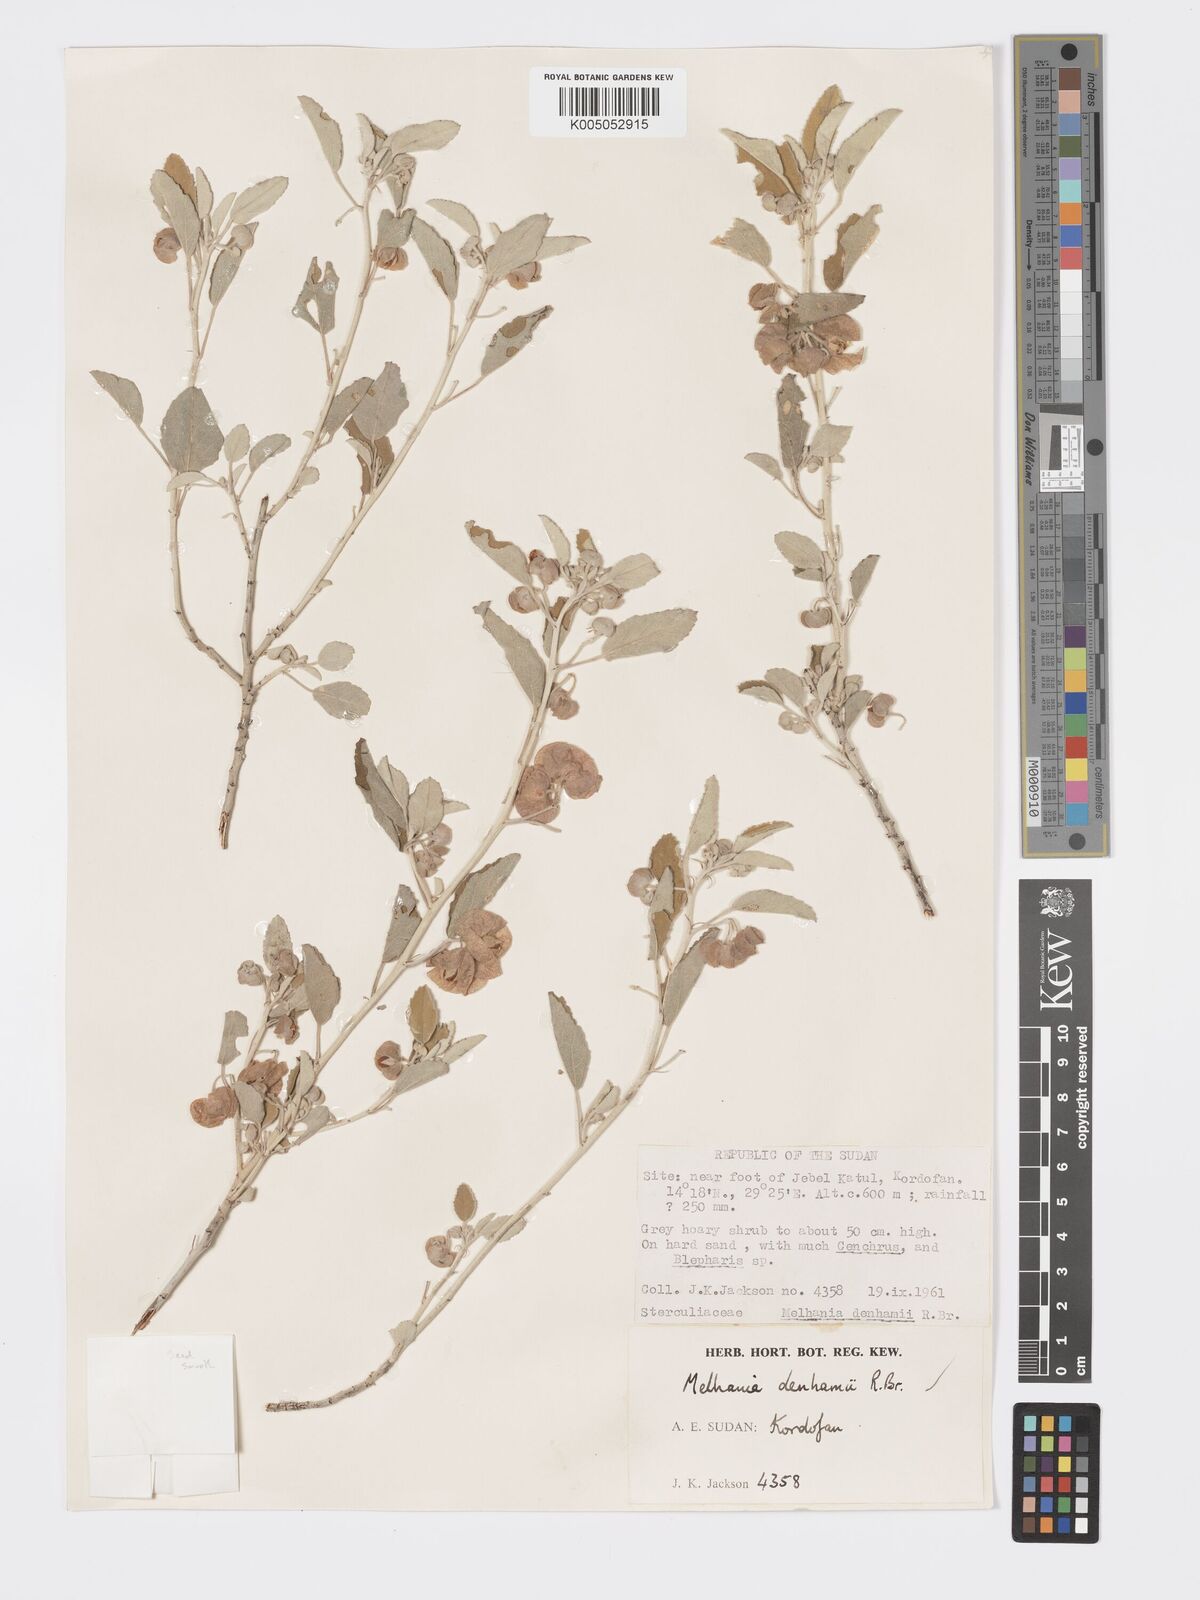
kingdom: Plantae
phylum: Tracheophyta
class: Magnoliopsida
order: Malvales
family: Malvaceae
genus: Melhania
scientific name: Melhania denhamii
